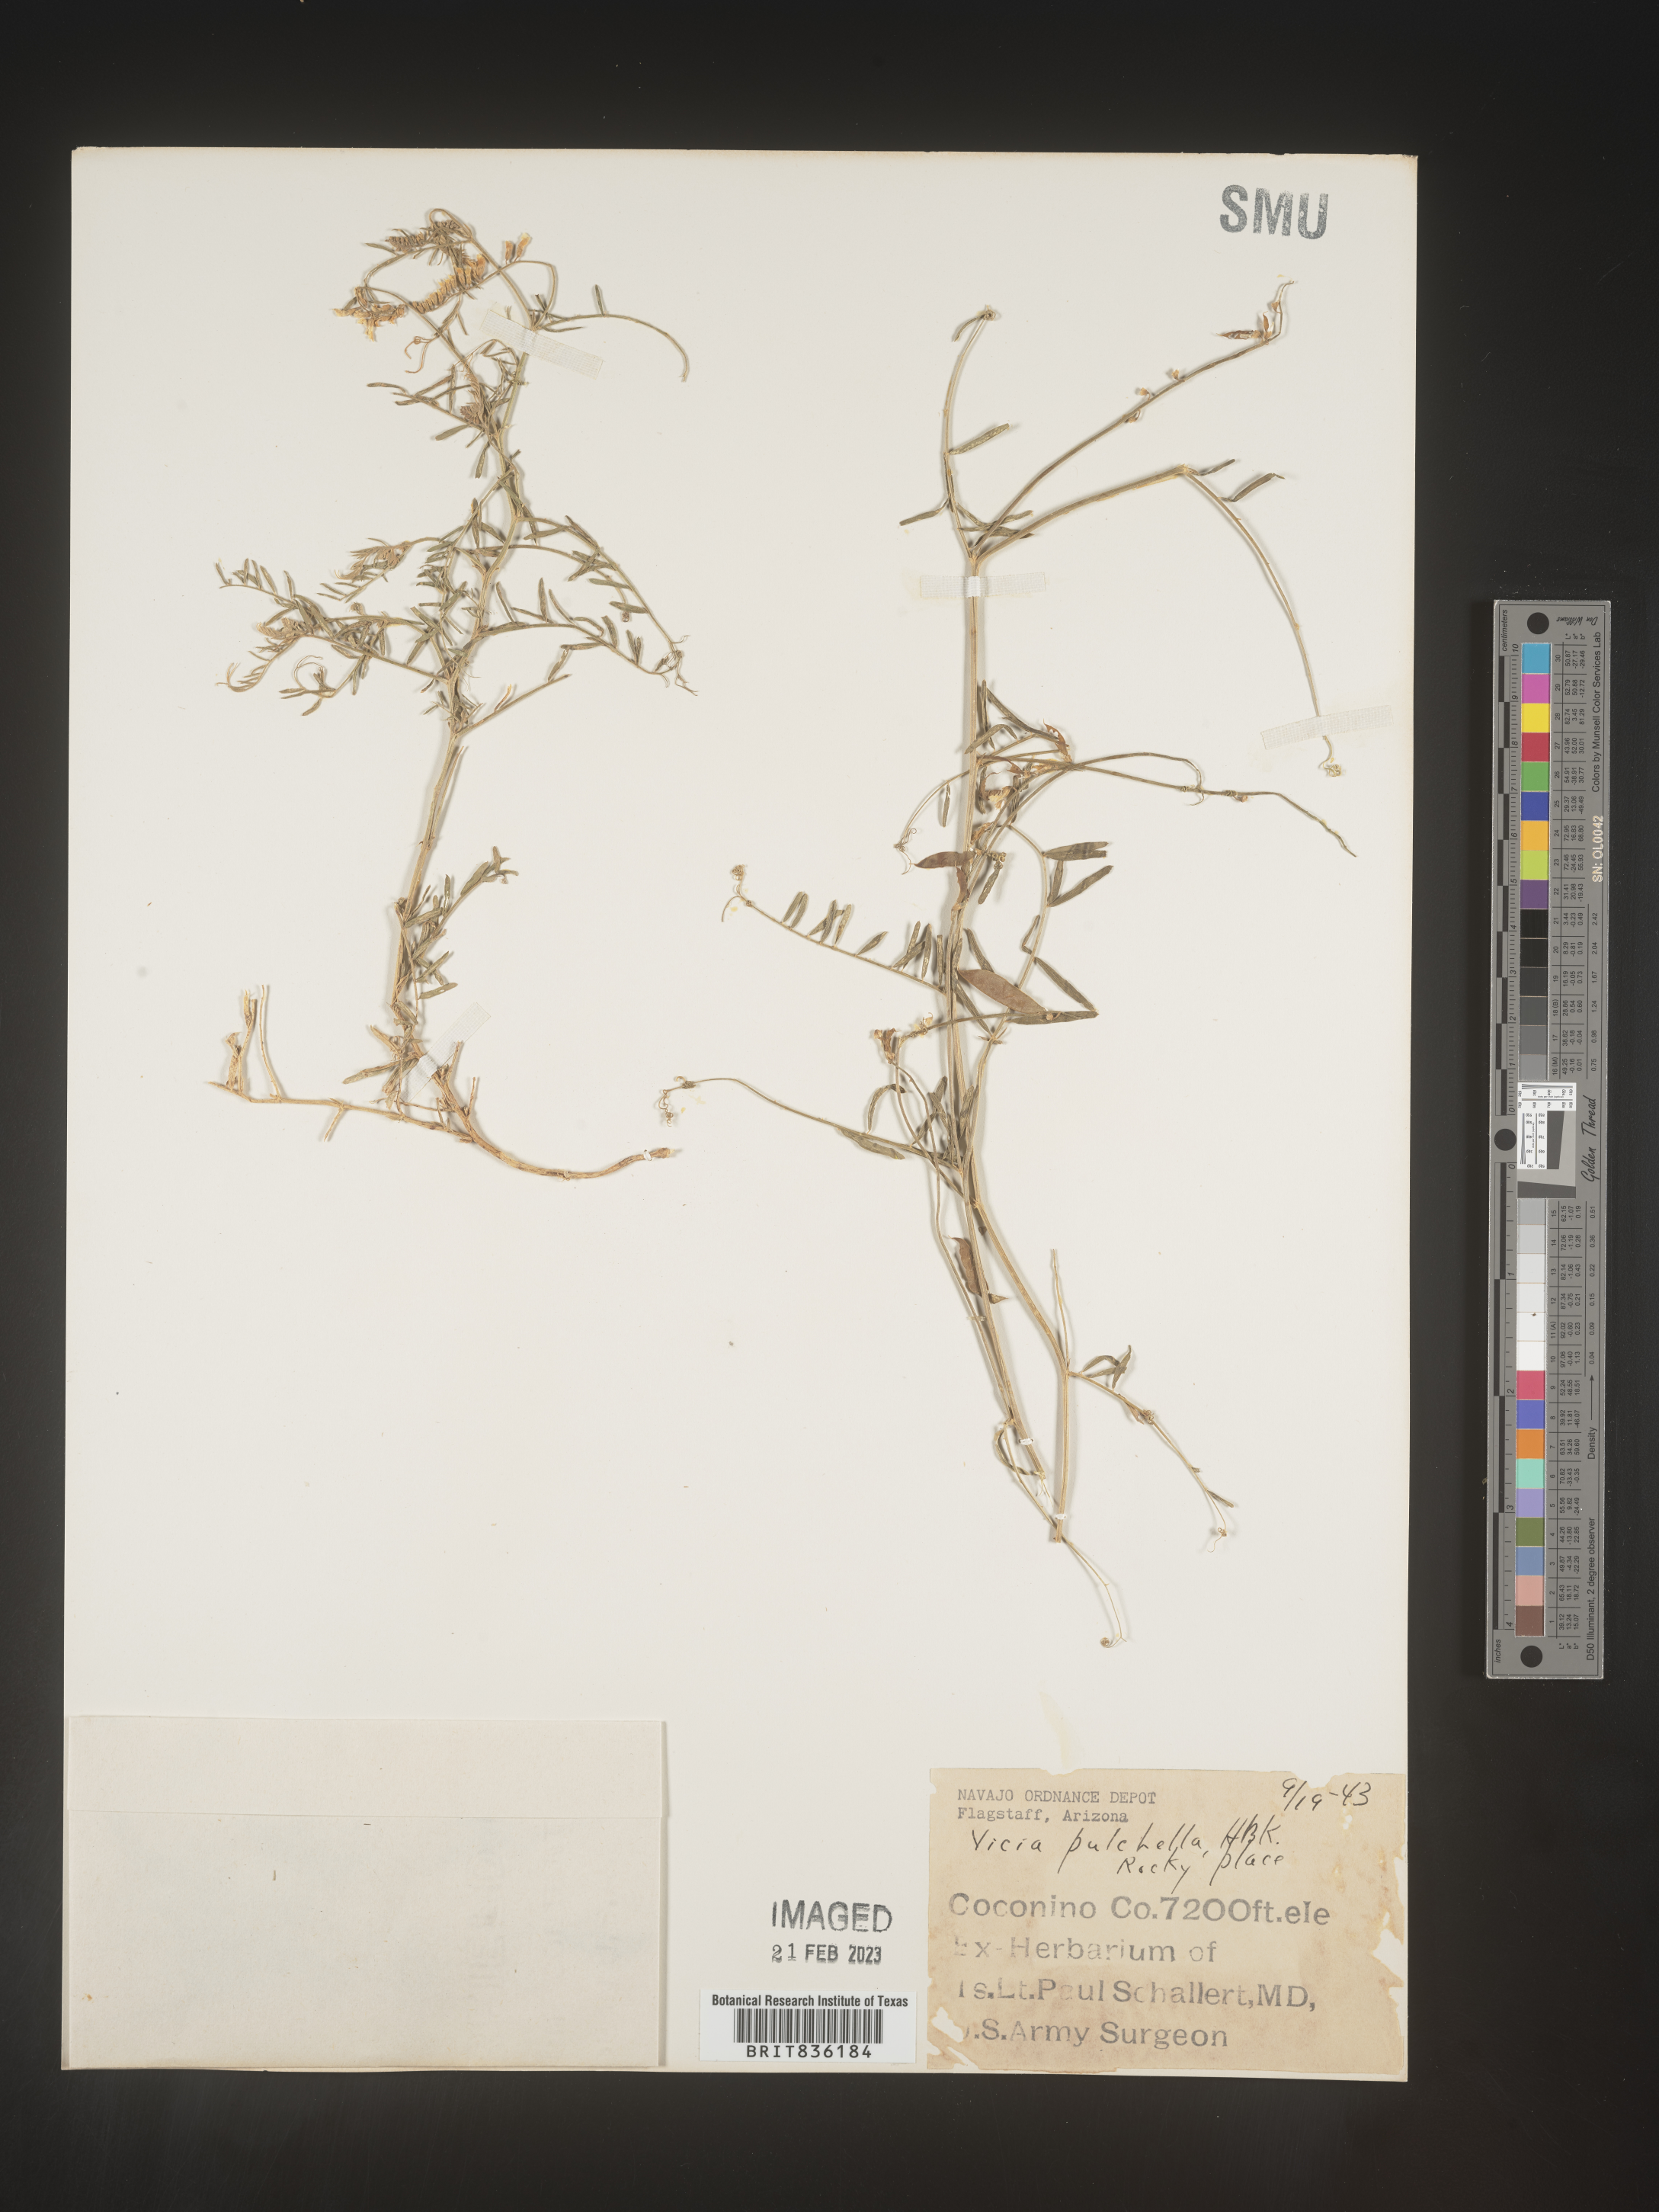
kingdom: Plantae
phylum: Tracheophyta
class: Magnoliopsida
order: Fabales
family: Fabaceae
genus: Vicia
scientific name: Vicia
